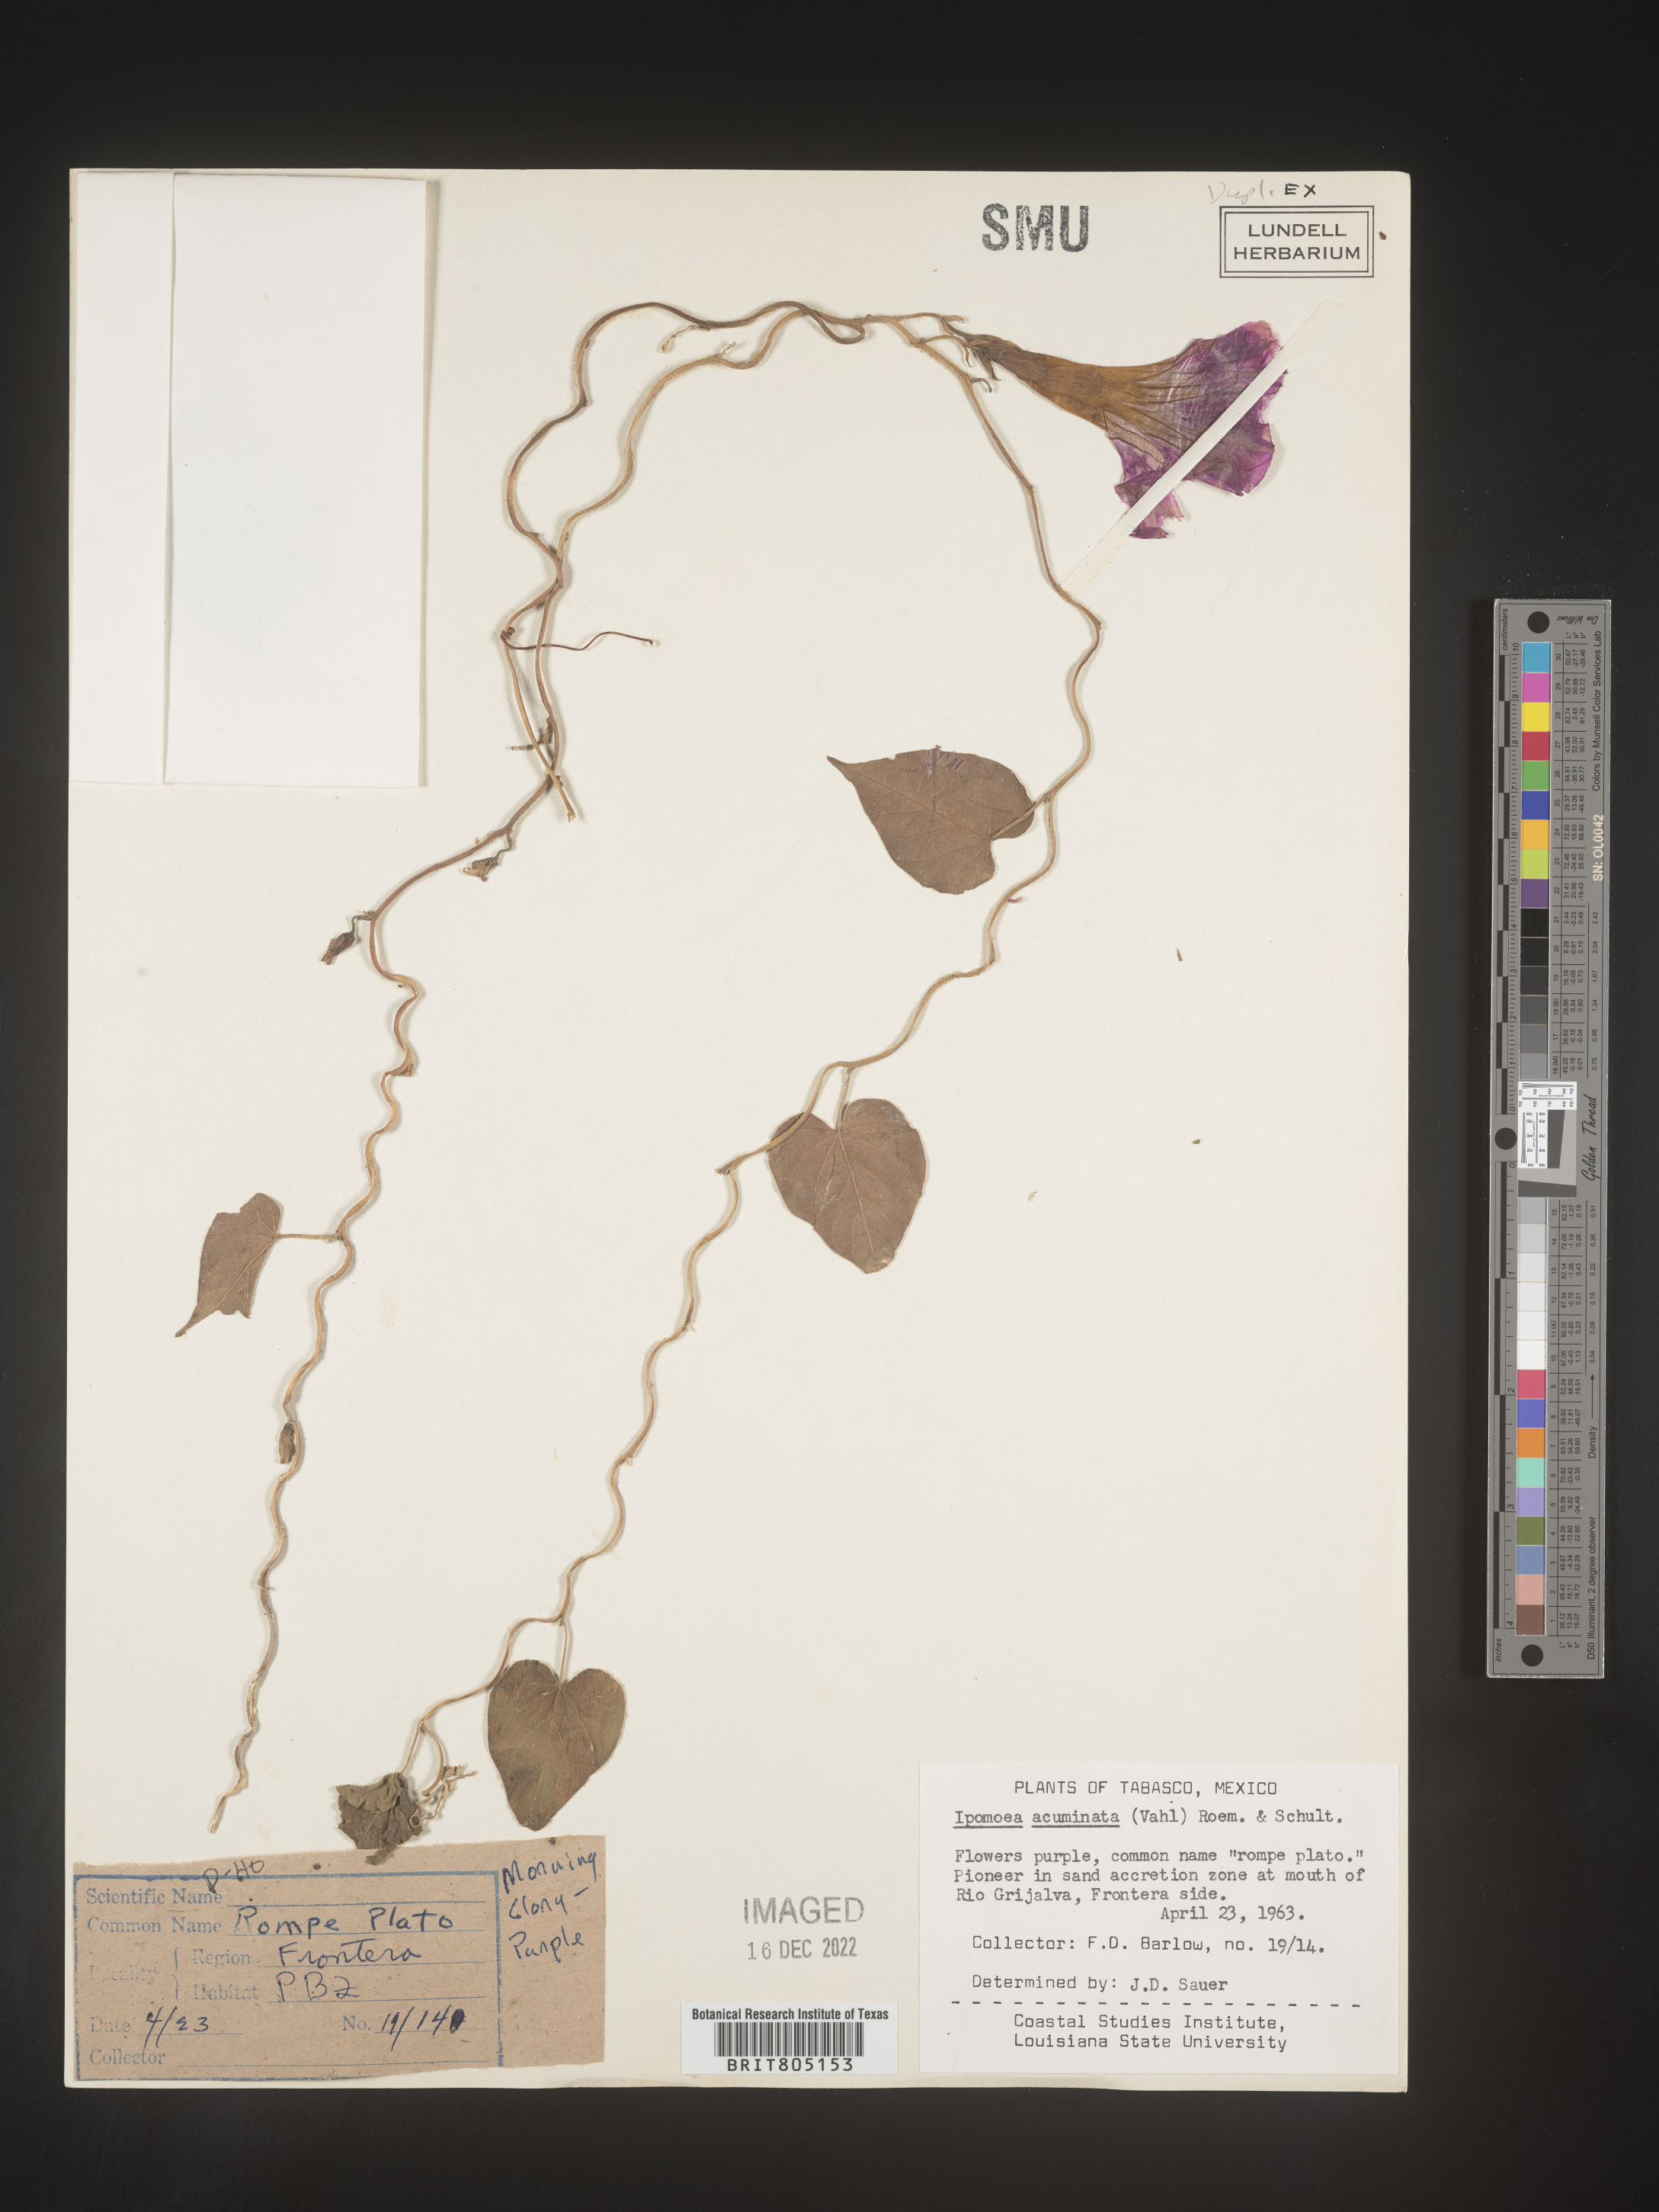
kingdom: Plantae
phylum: Tracheophyta
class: Magnoliopsida
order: Solanales
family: Convolvulaceae
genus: Ipomoea
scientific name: Ipomoea
